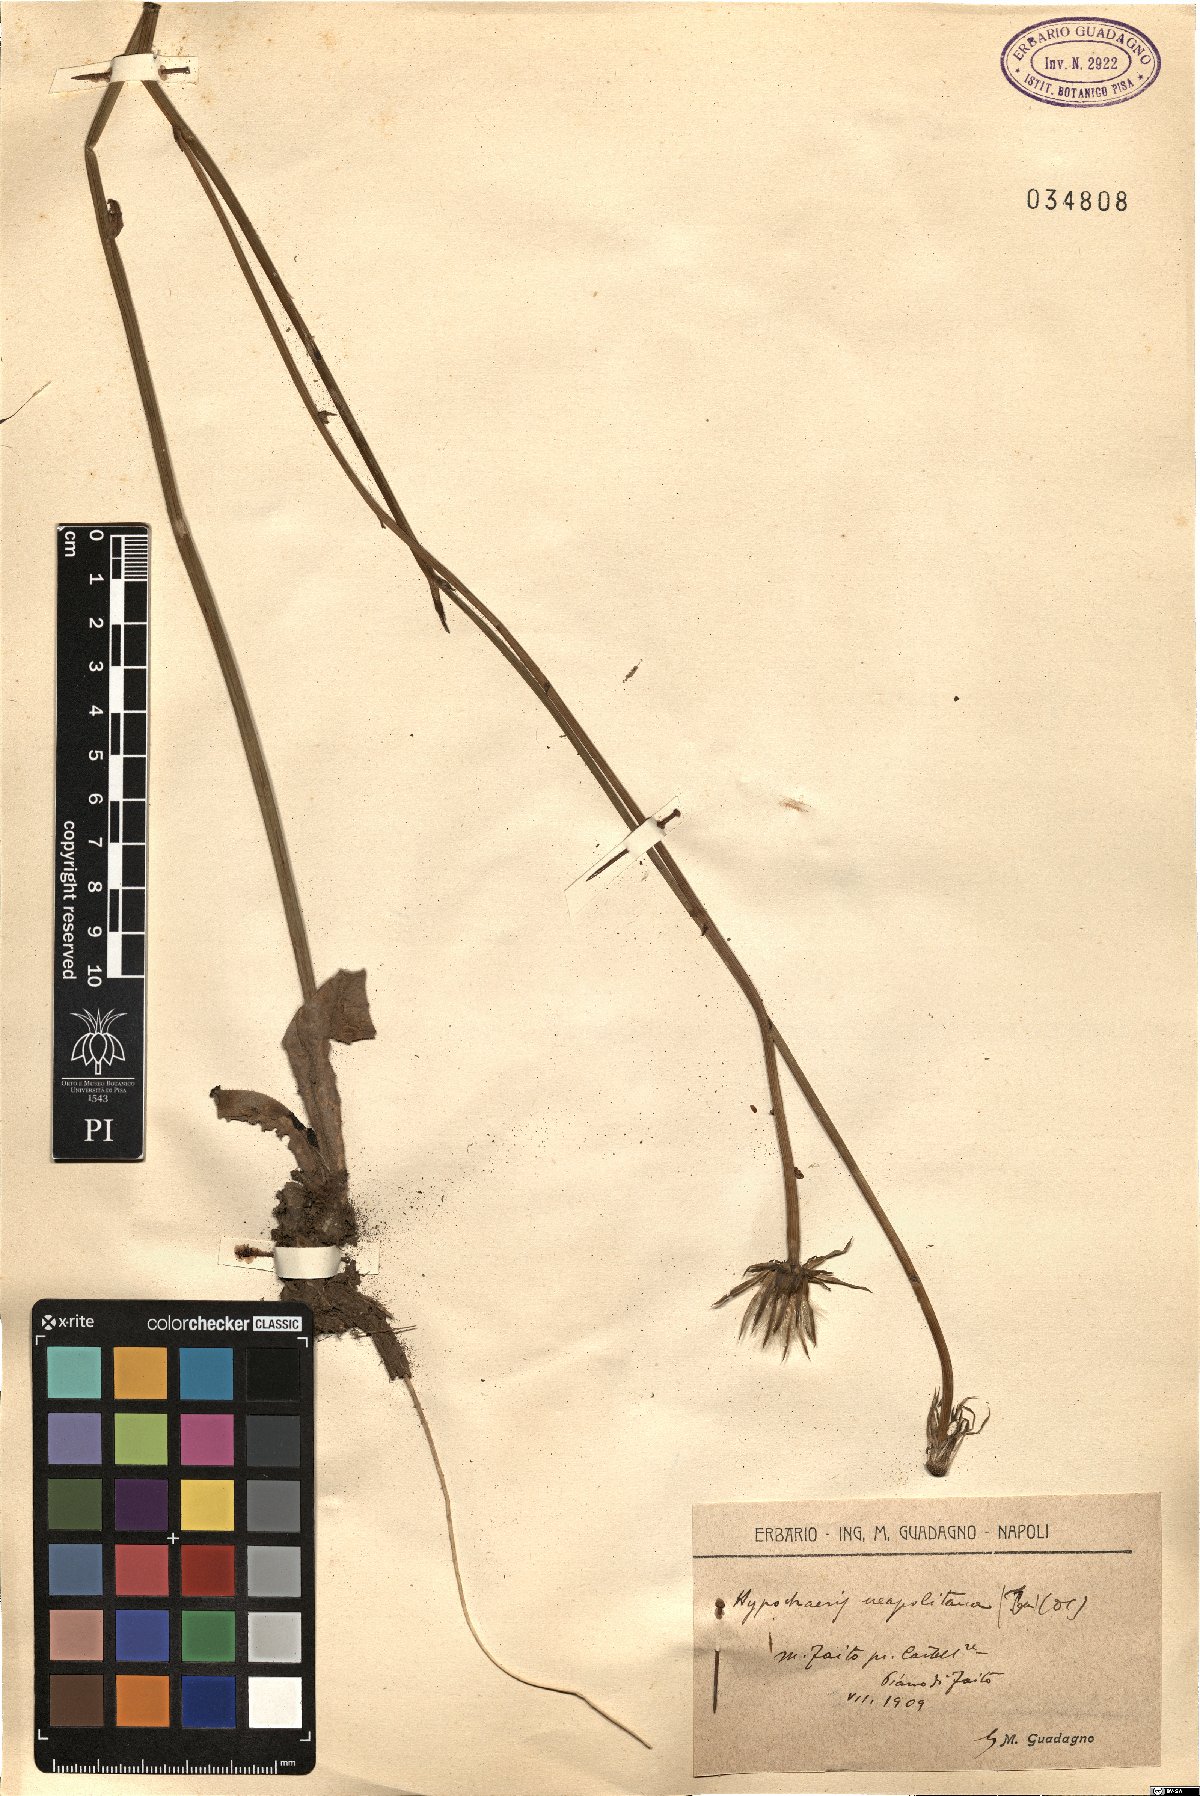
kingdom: Plantae
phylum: Tracheophyta
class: Magnoliopsida
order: Asterales
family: Asteraceae
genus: Hypochaeris
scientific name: Hypochaeris radicata
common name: Flatweed
